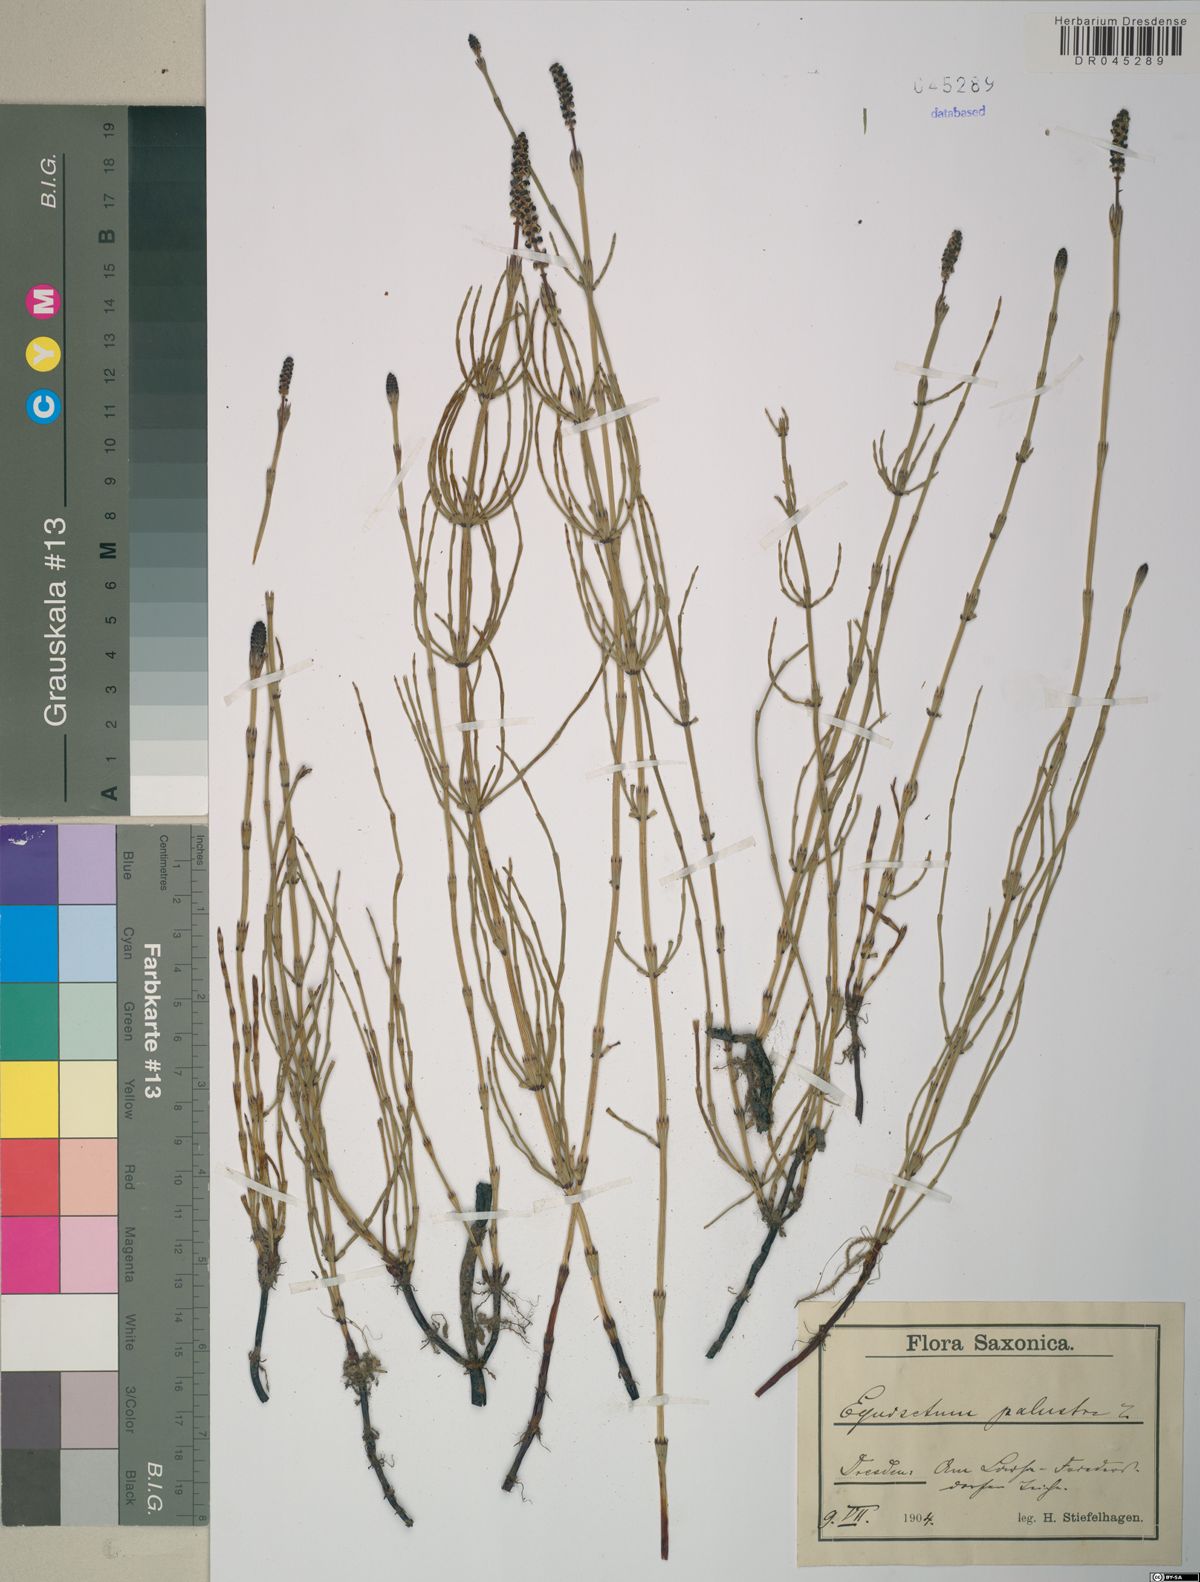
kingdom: Plantae
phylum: Tracheophyta
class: Polypodiopsida
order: Equisetales
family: Equisetaceae
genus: Equisetum
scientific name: Equisetum palustre
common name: Marsh horsetail
